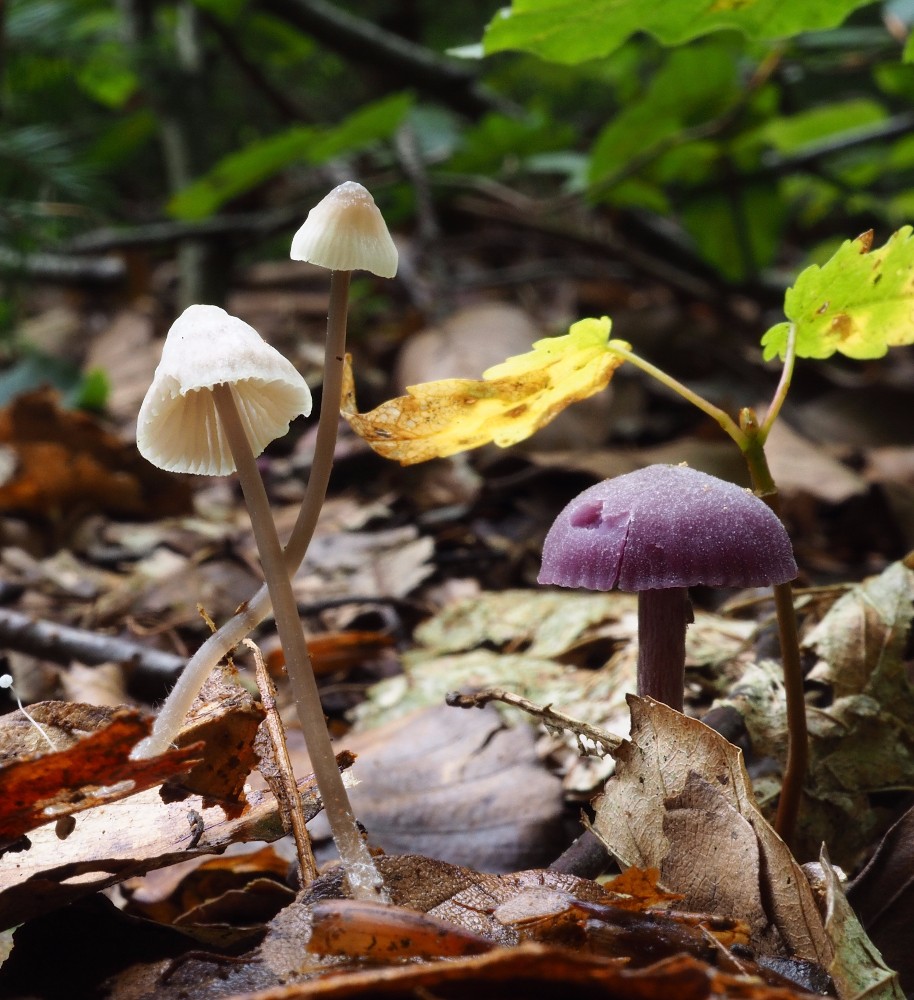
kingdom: Fungi
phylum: Basidiomycota
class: Agaricomycetes
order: Agaricales
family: Mycenaceae
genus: Mycena
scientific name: Mycena flavescens
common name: grågul huesvamp
